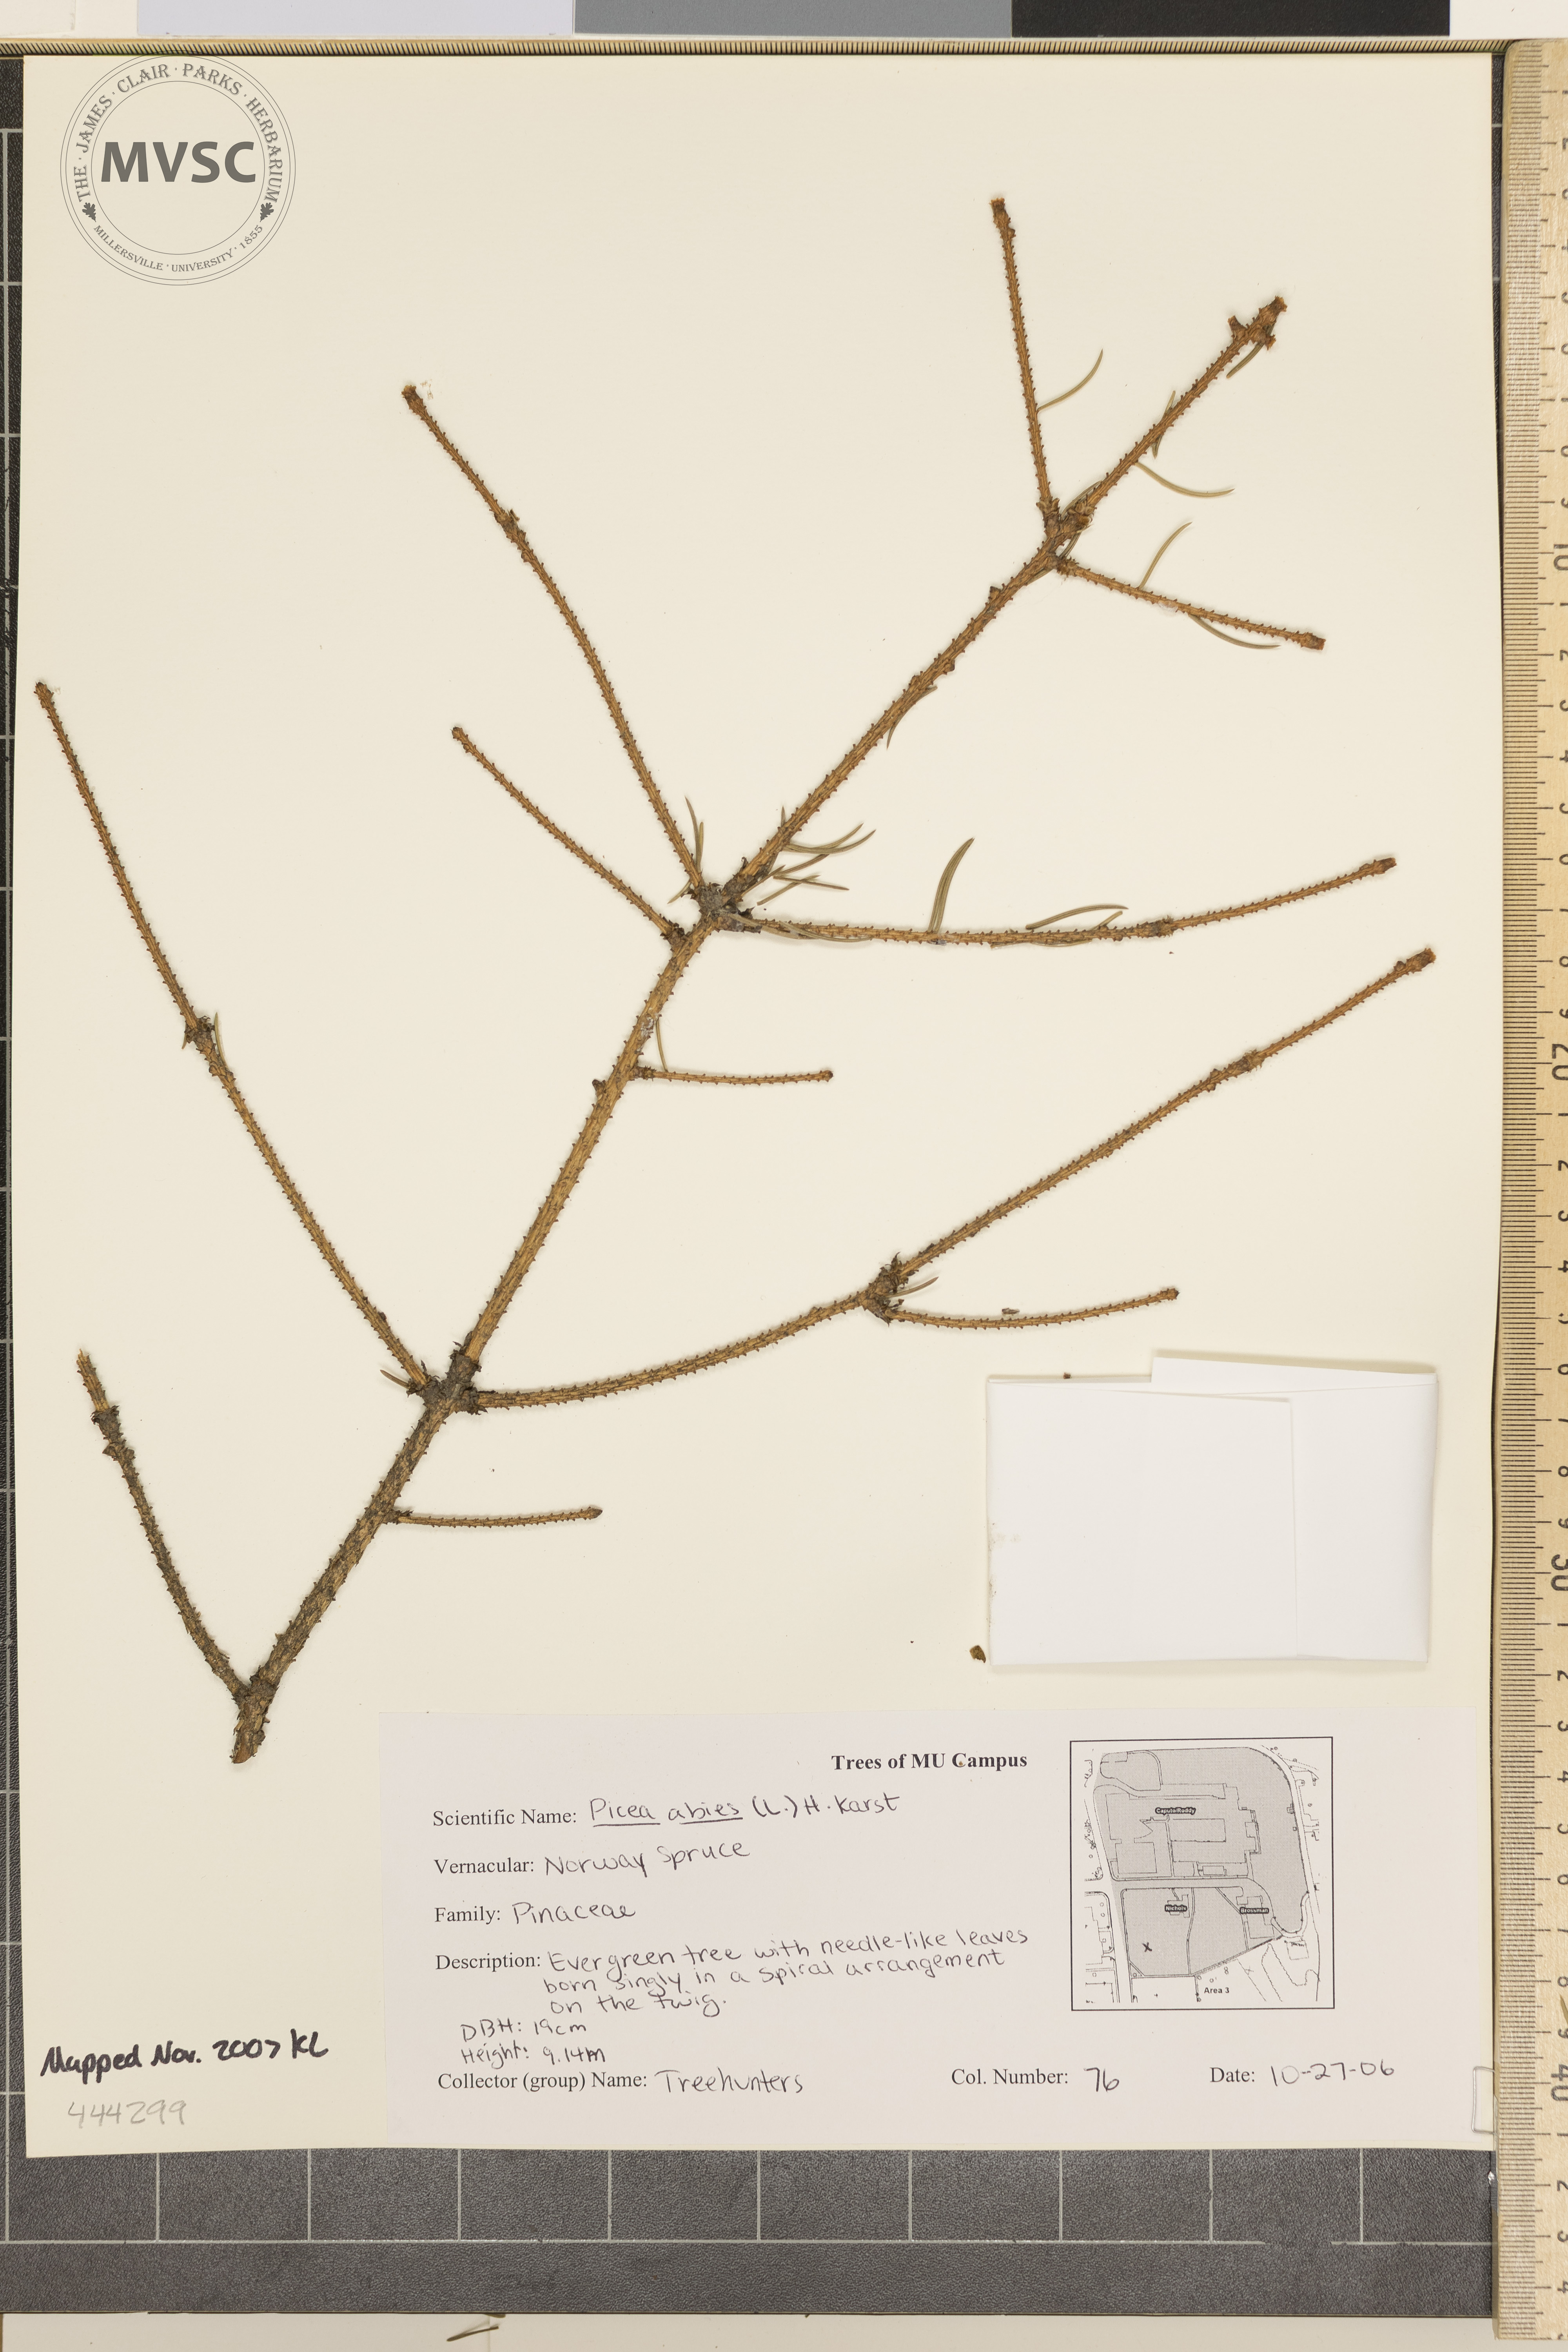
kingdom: Plantae
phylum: Tracheophyta
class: Pinopsida
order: Pinales
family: Pinaceae
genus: Picea
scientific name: Picea abies
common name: Norway Spruce
